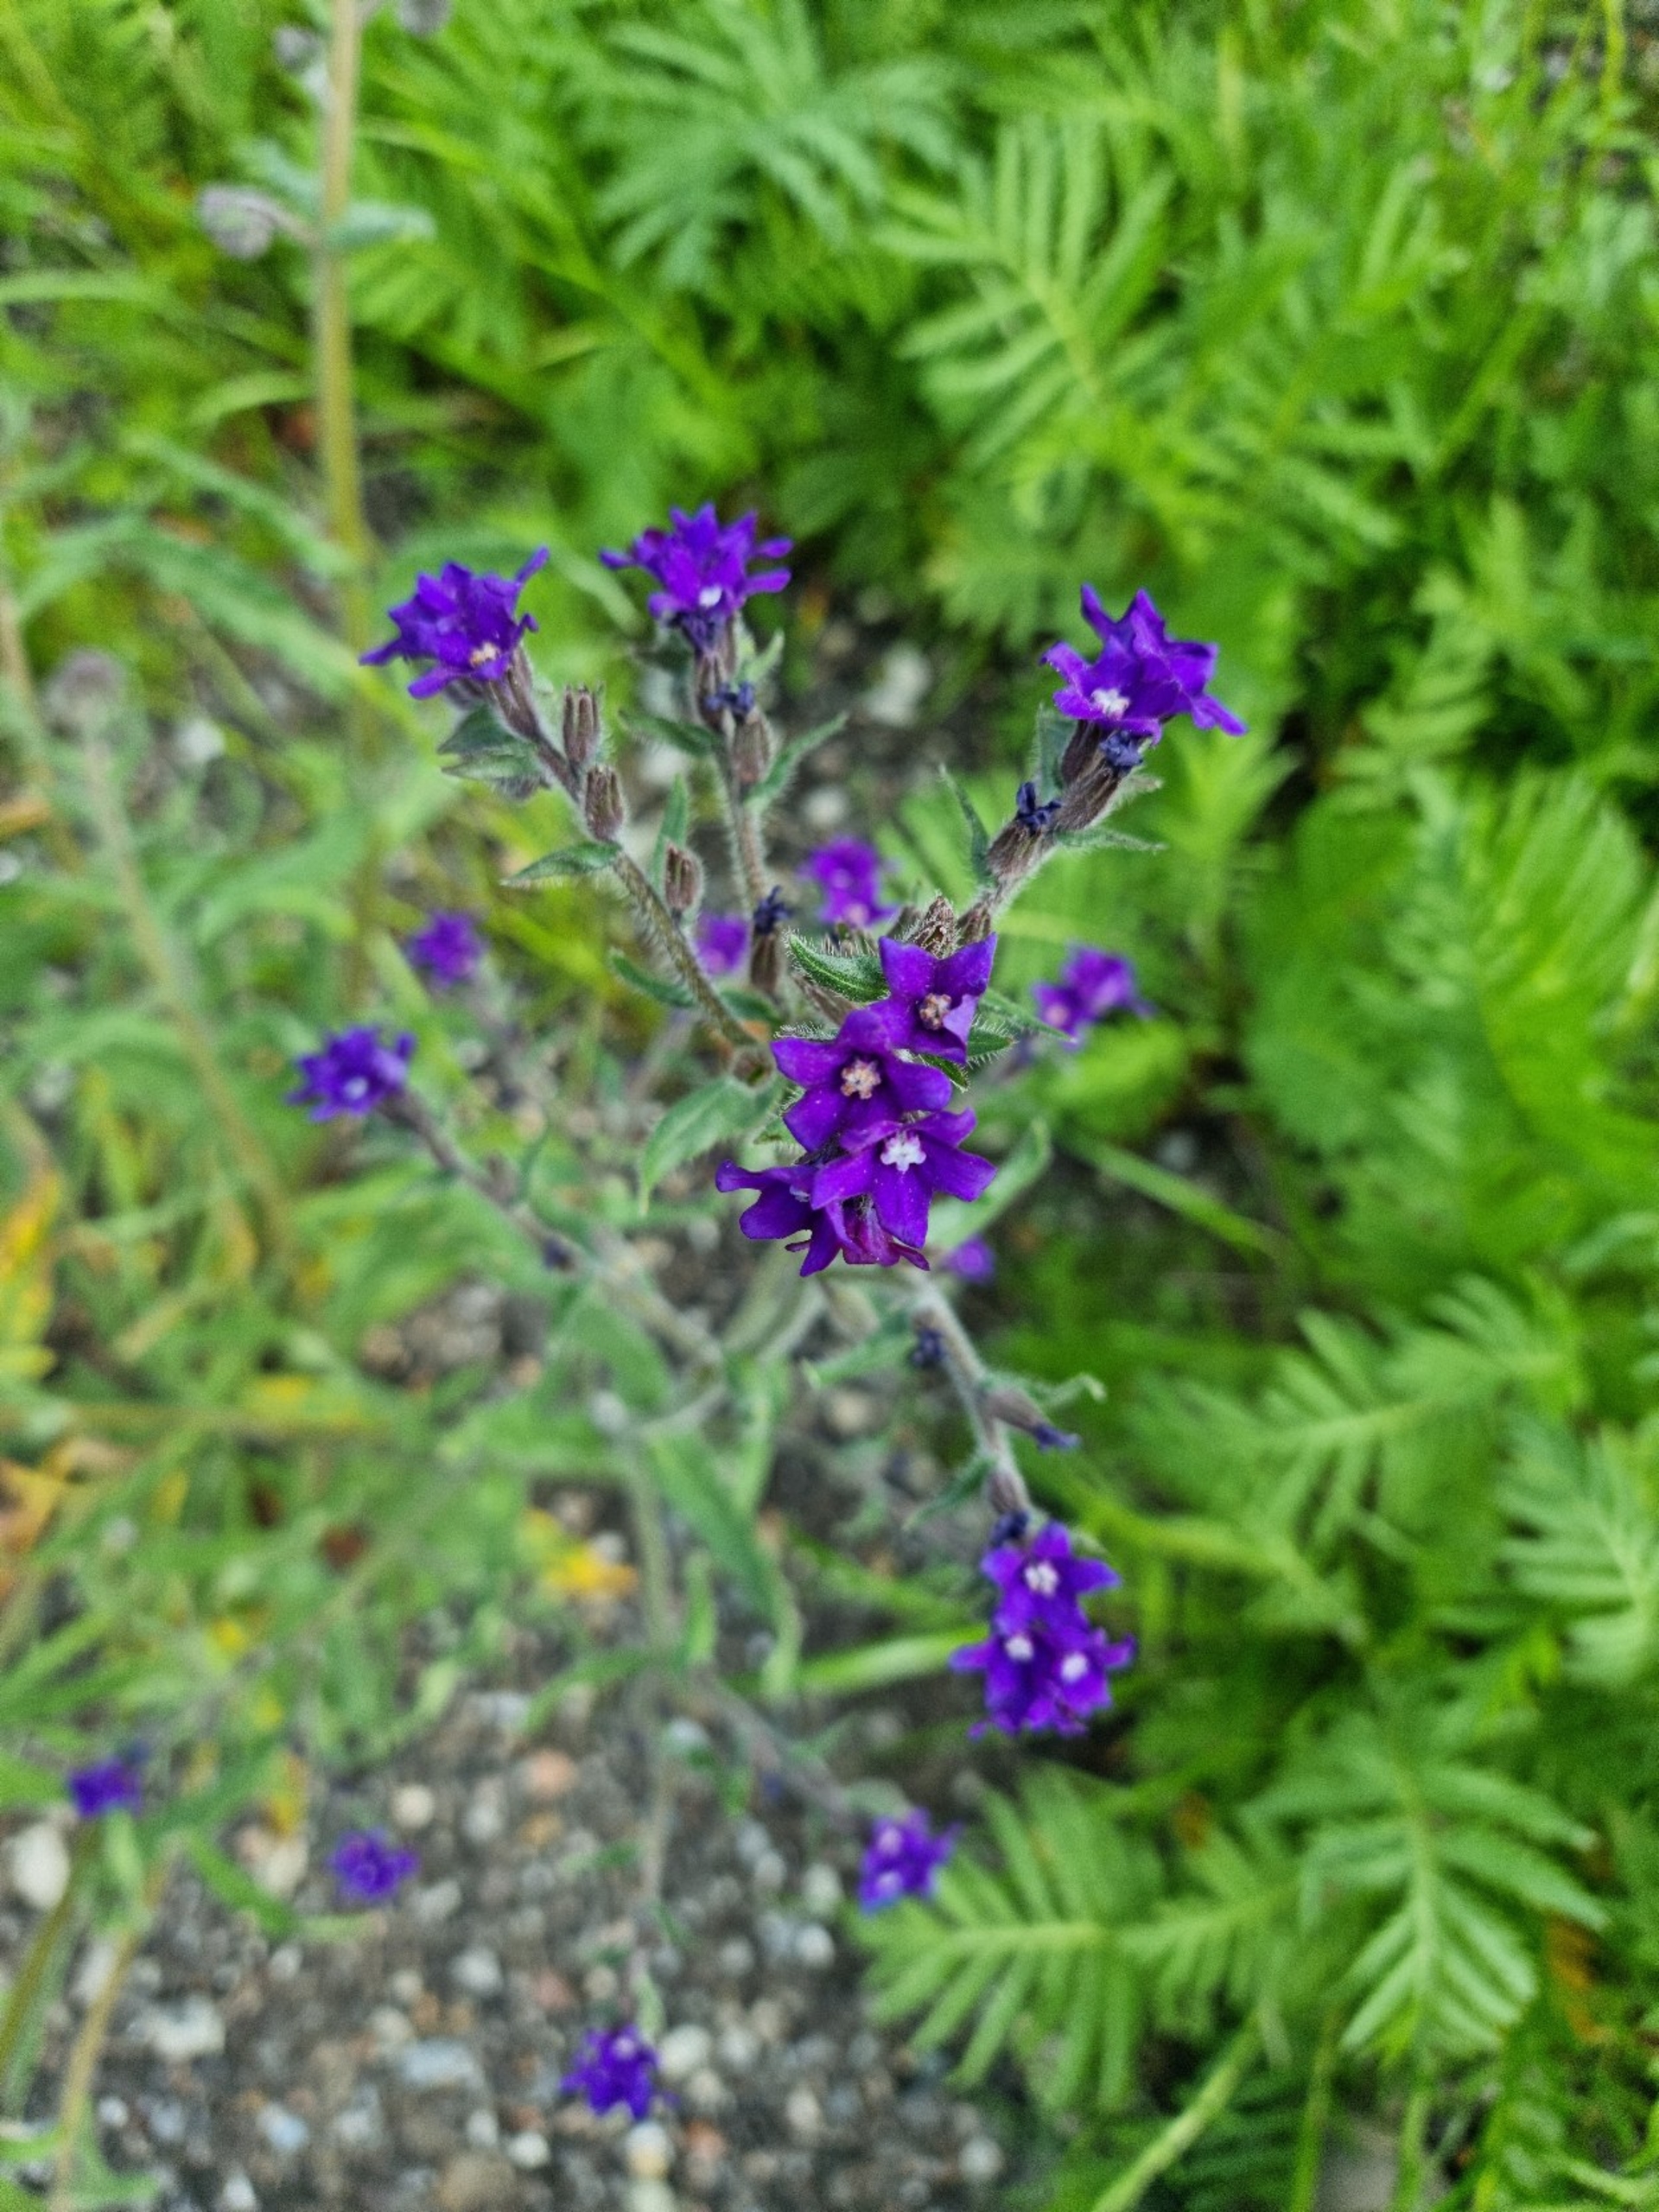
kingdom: Plantae
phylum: Tracheophyta
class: Magnoliopsida
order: Boraginales
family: Boraginaceae
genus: Anchusa
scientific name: Anchusa officinalis
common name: Læge-oksetunge
